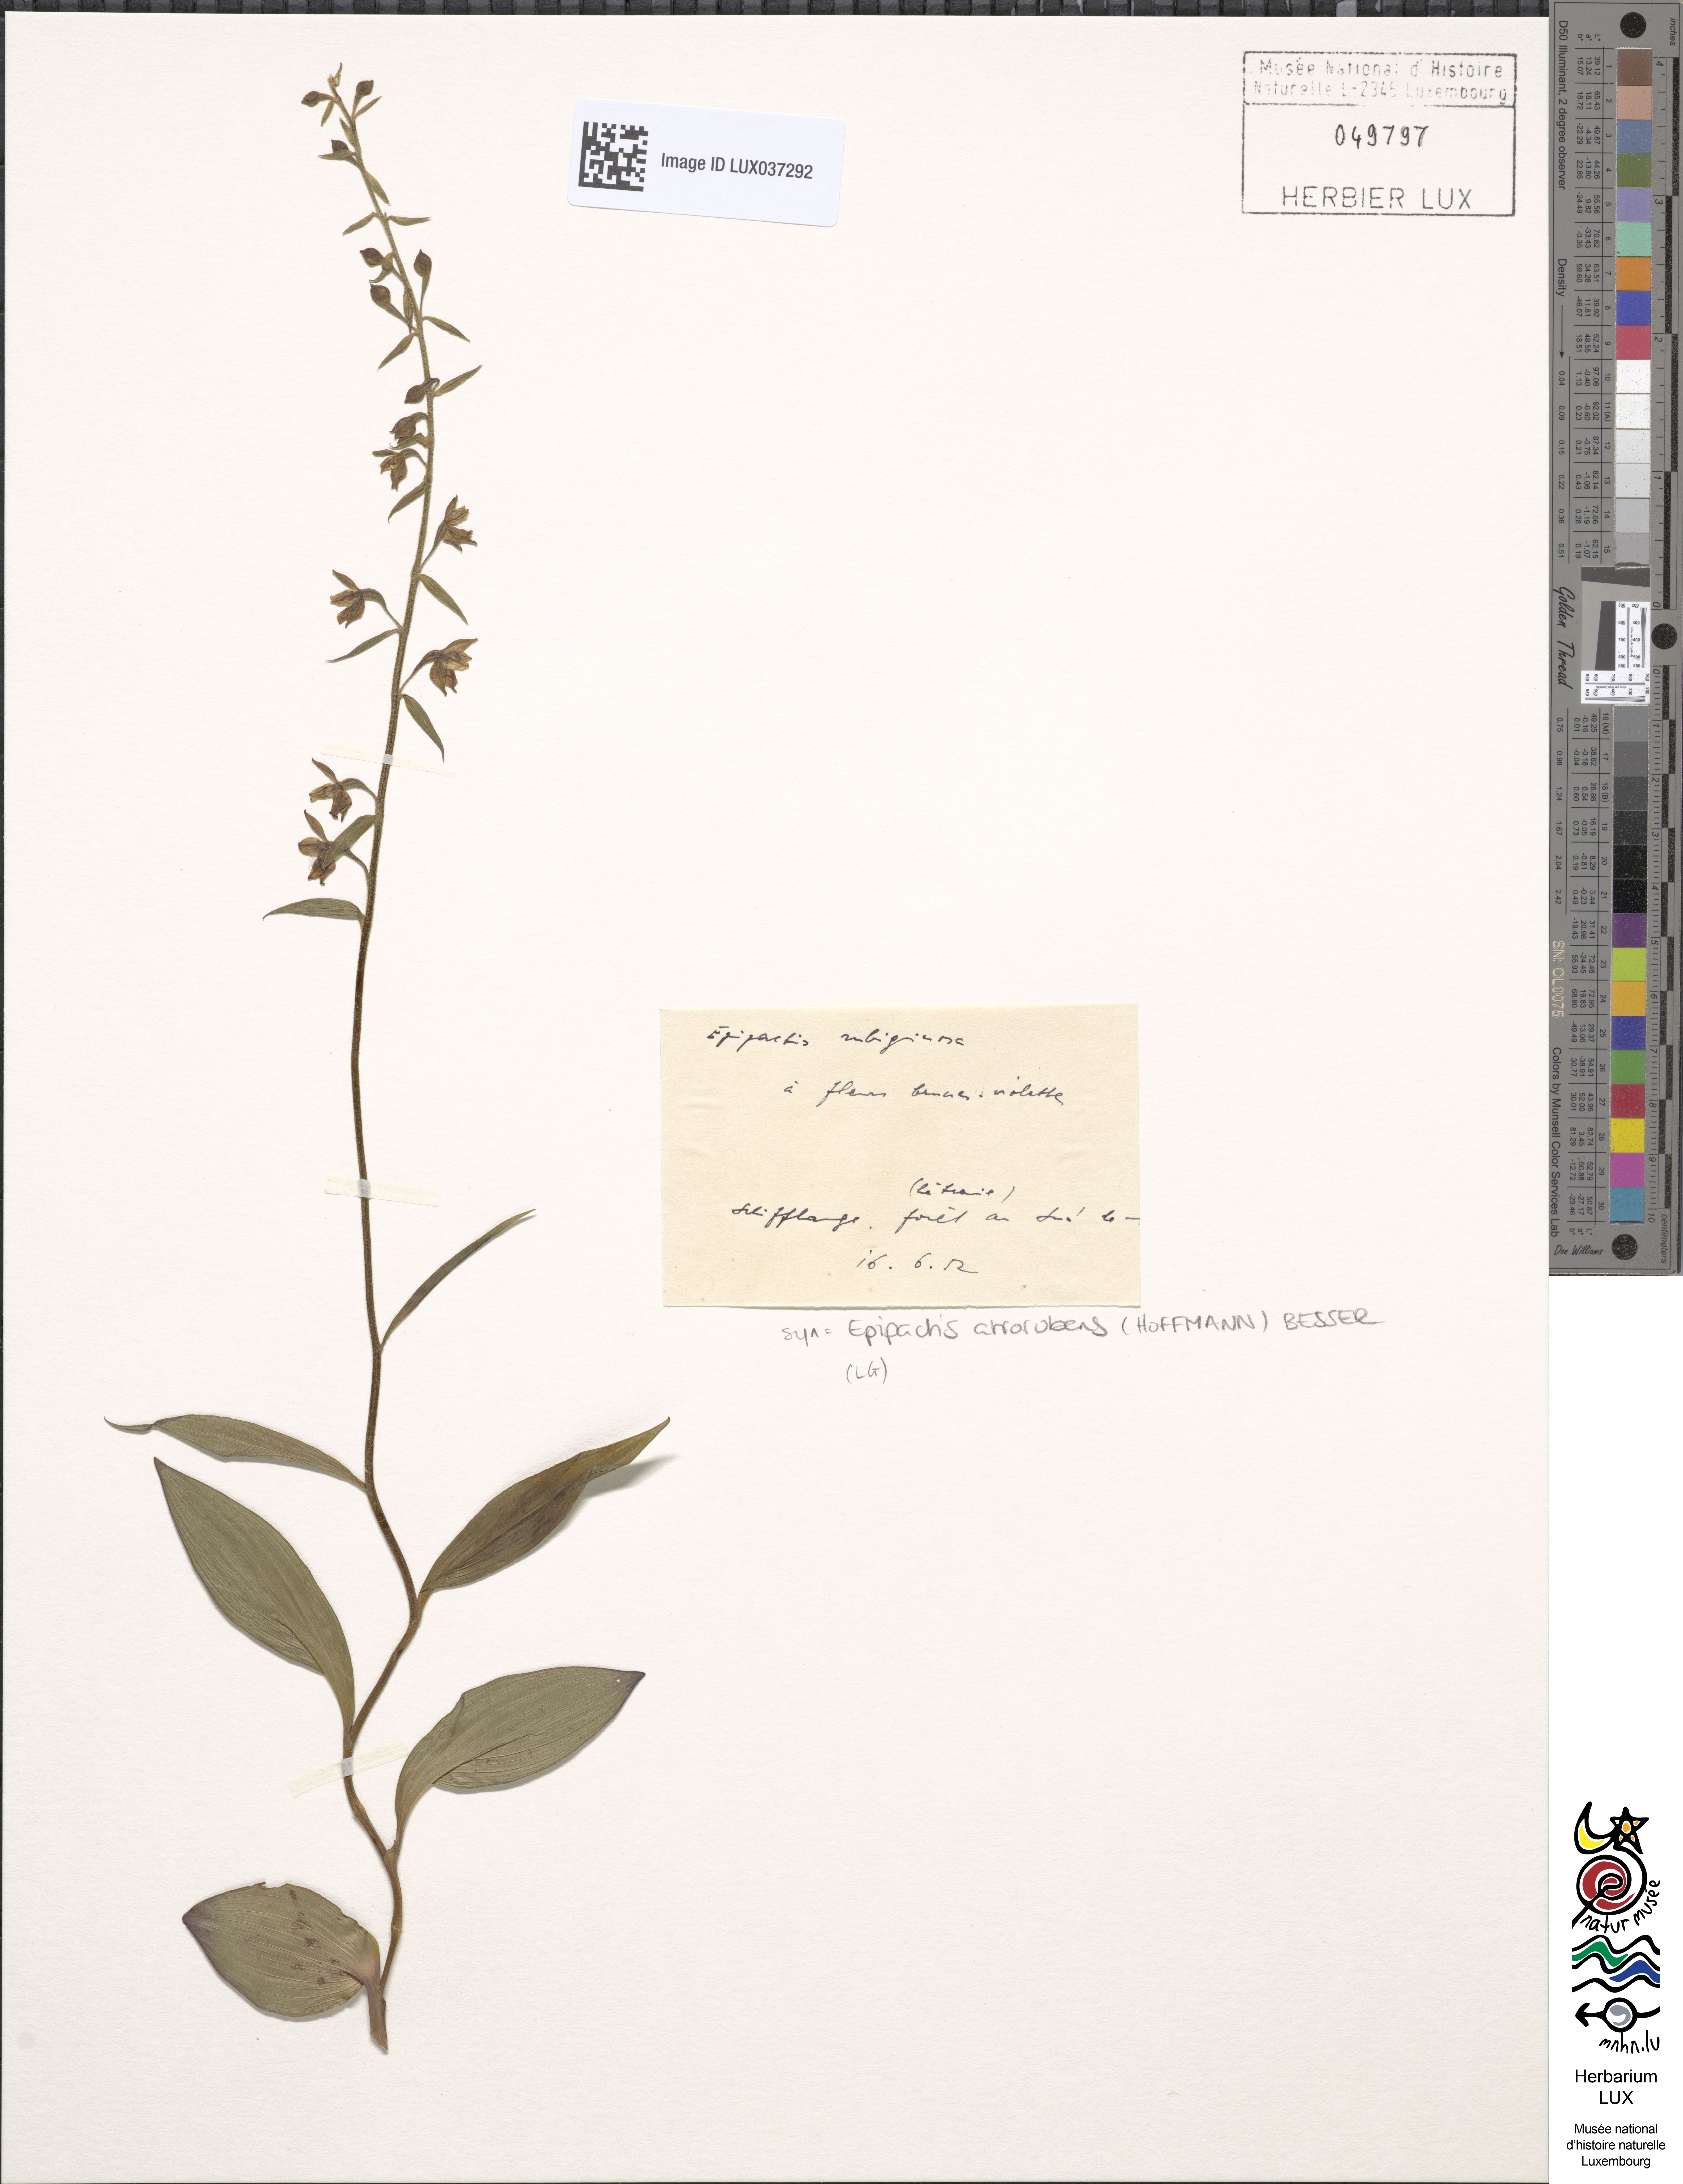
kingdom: Plantae
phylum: Tracheophyta
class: Liliopsida
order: Asparagales
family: Orchidaceae
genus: Epipactis
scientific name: Epipactis atrorubens
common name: Dark-red helleborine
